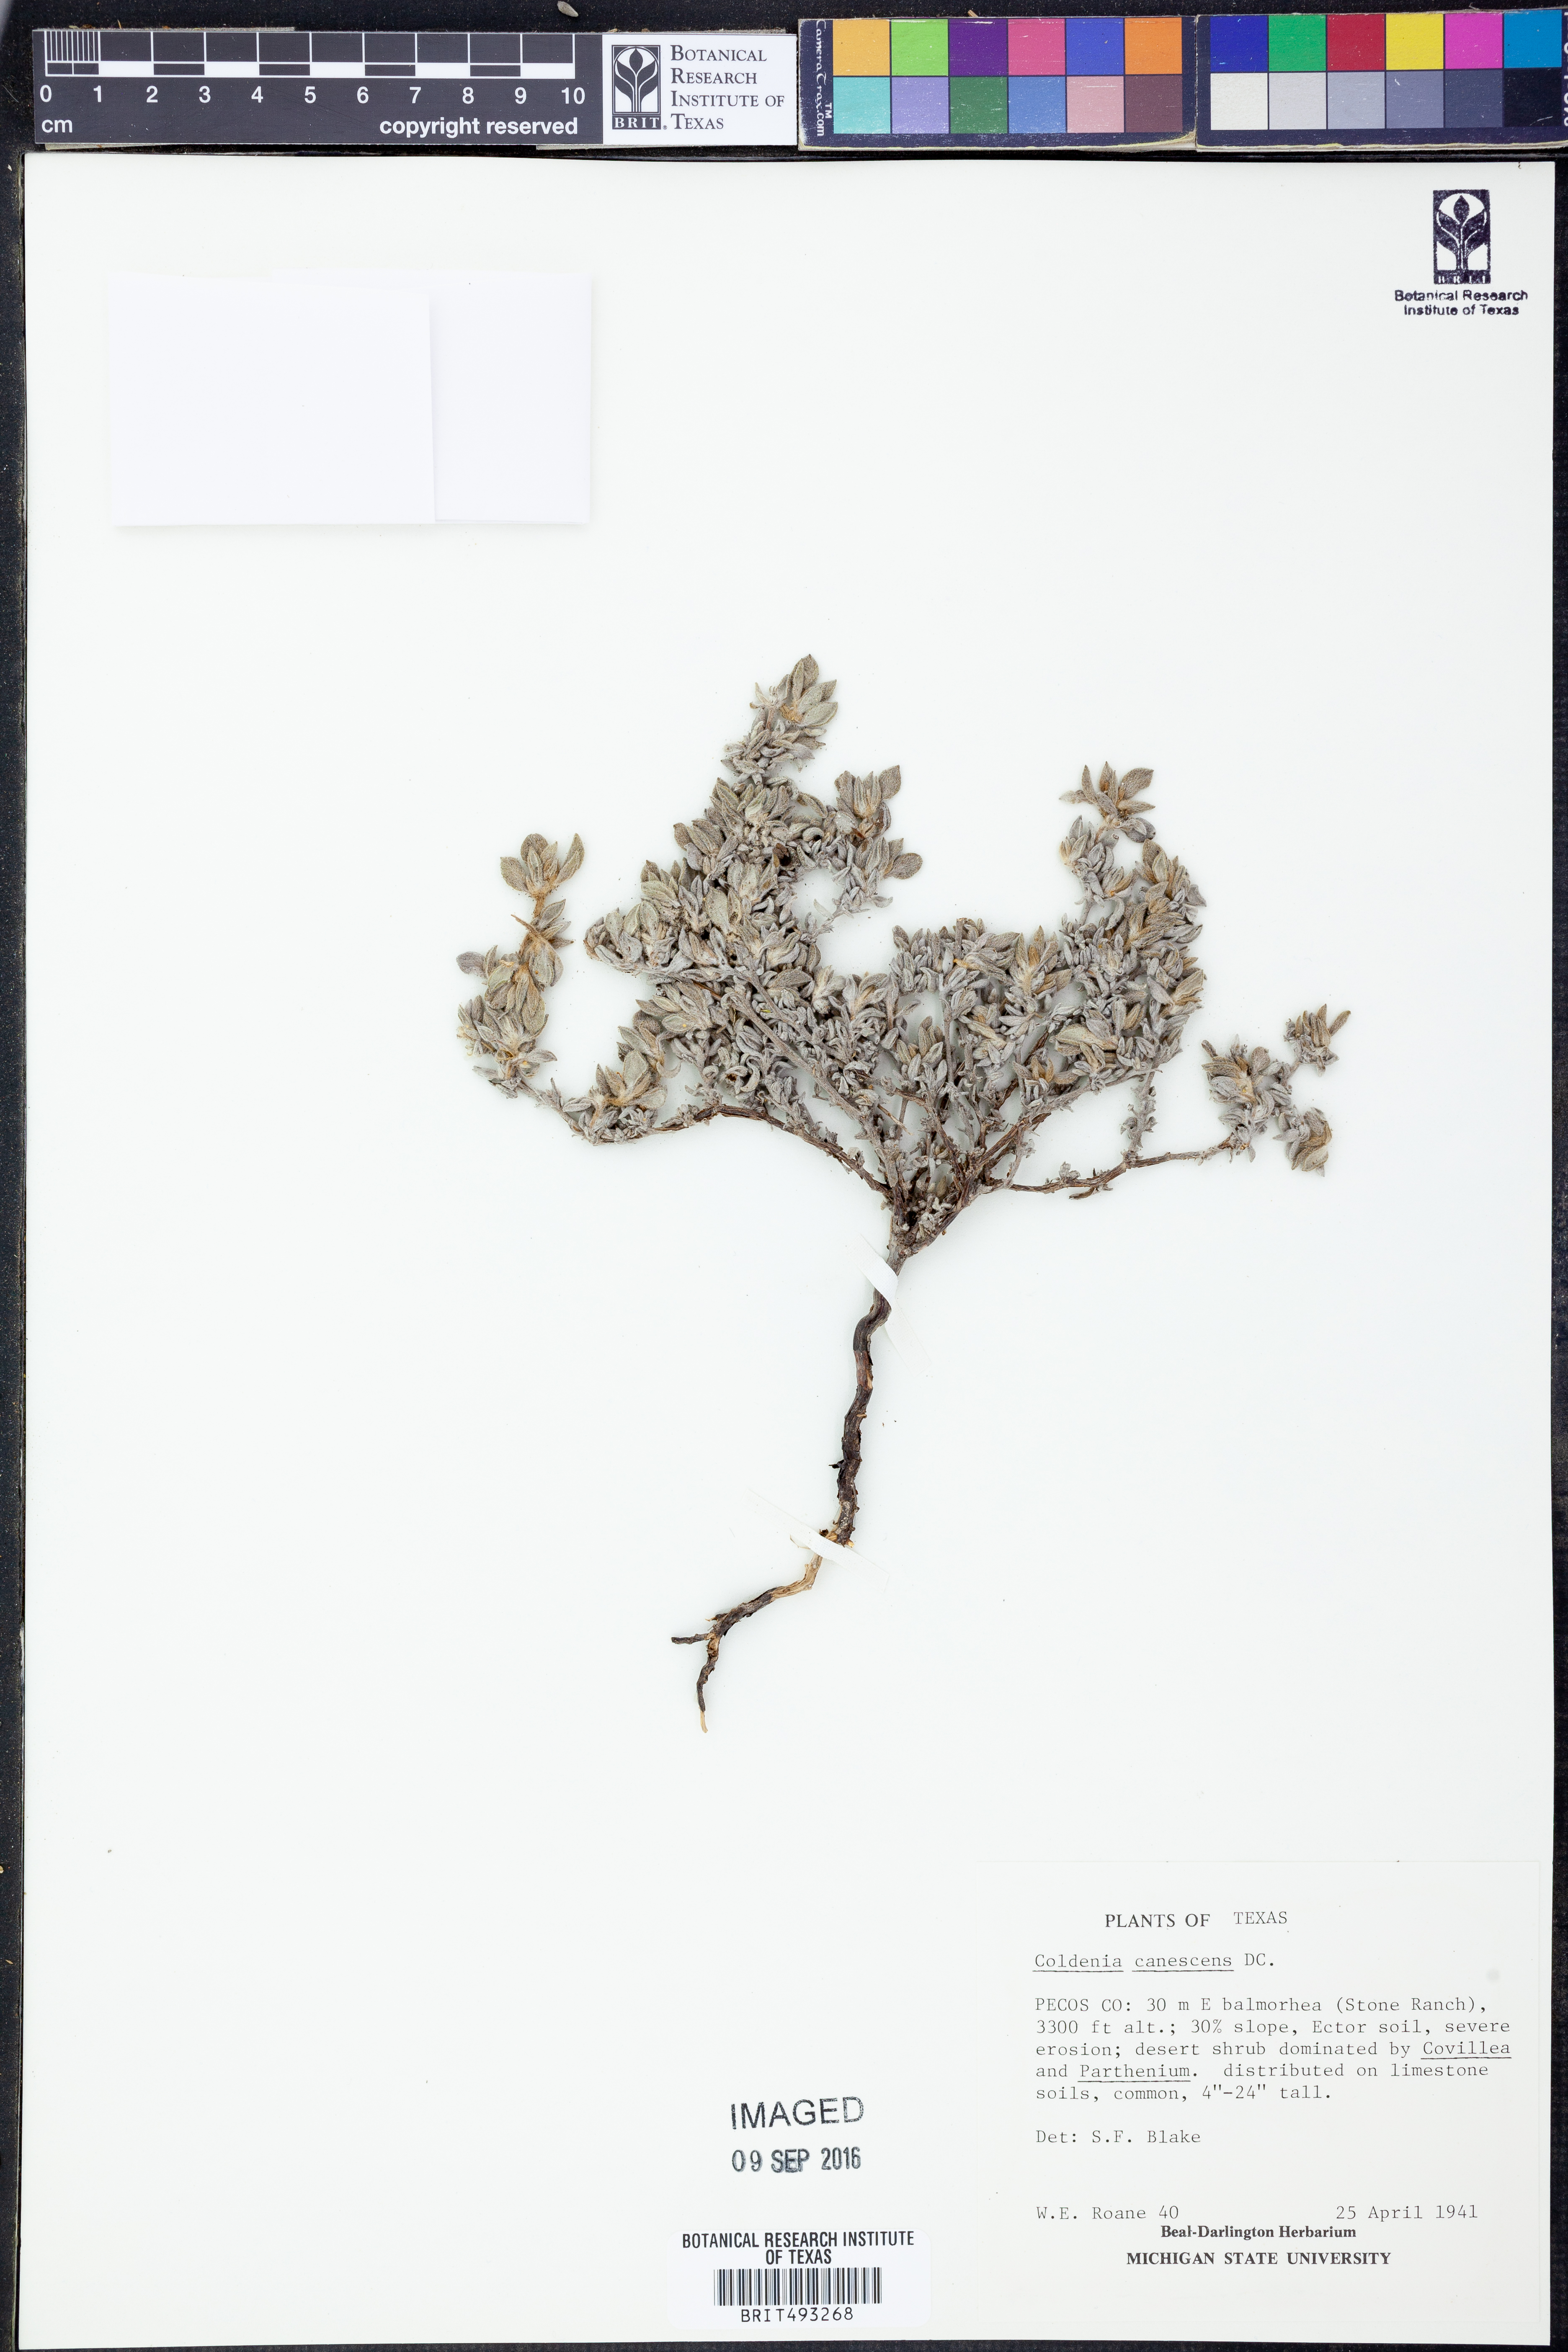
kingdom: Plantae
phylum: Tracheophyta
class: Magnoliopsida
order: Boraginales
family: Ehretiaceae
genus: Tiquilia
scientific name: Tiquilia canescens
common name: Hairy tiquilia
